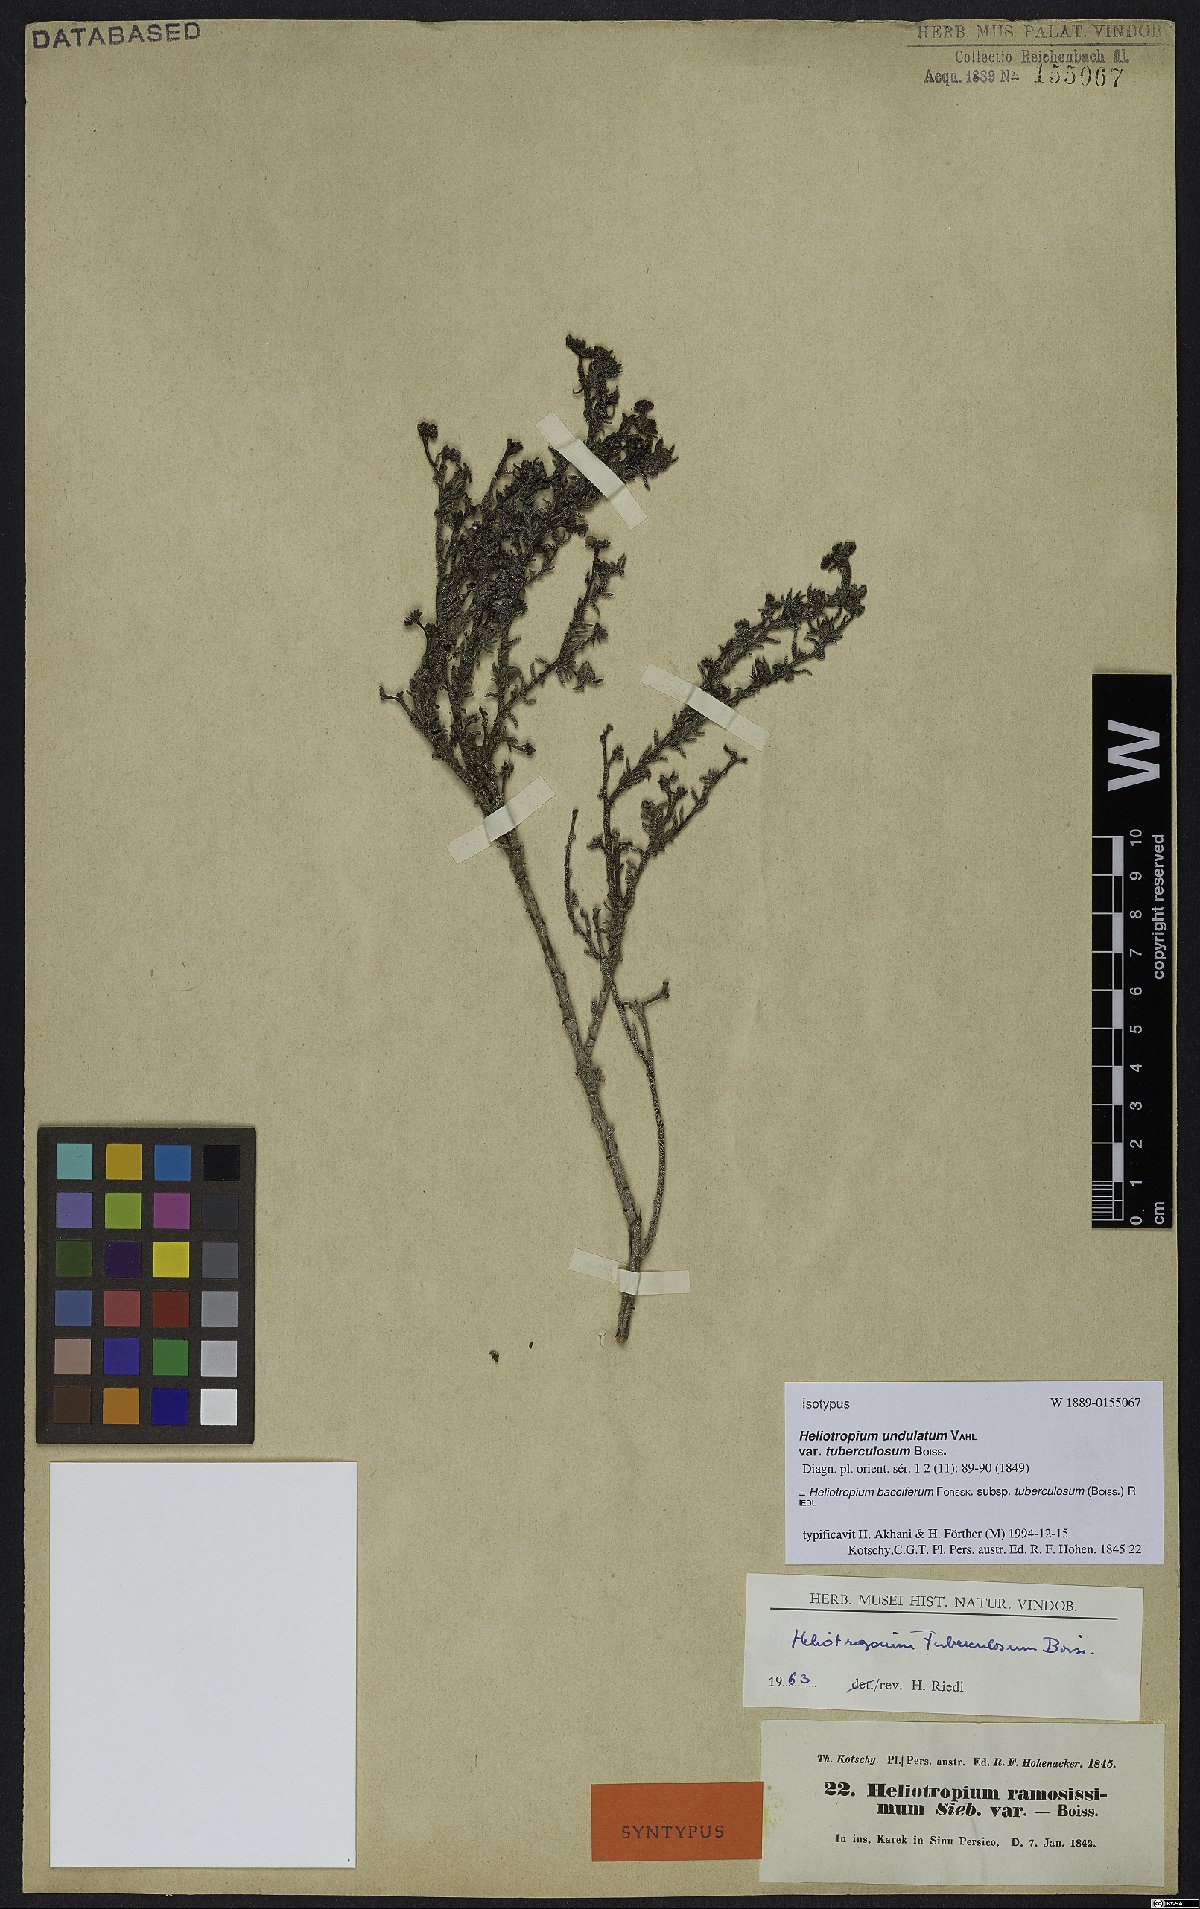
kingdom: Plantae
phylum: Tracheophyta
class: Magnoliopsida
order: Boraginales
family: Heliotropiaceae
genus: Heliotropium
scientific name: Heliotropium bacciferum
